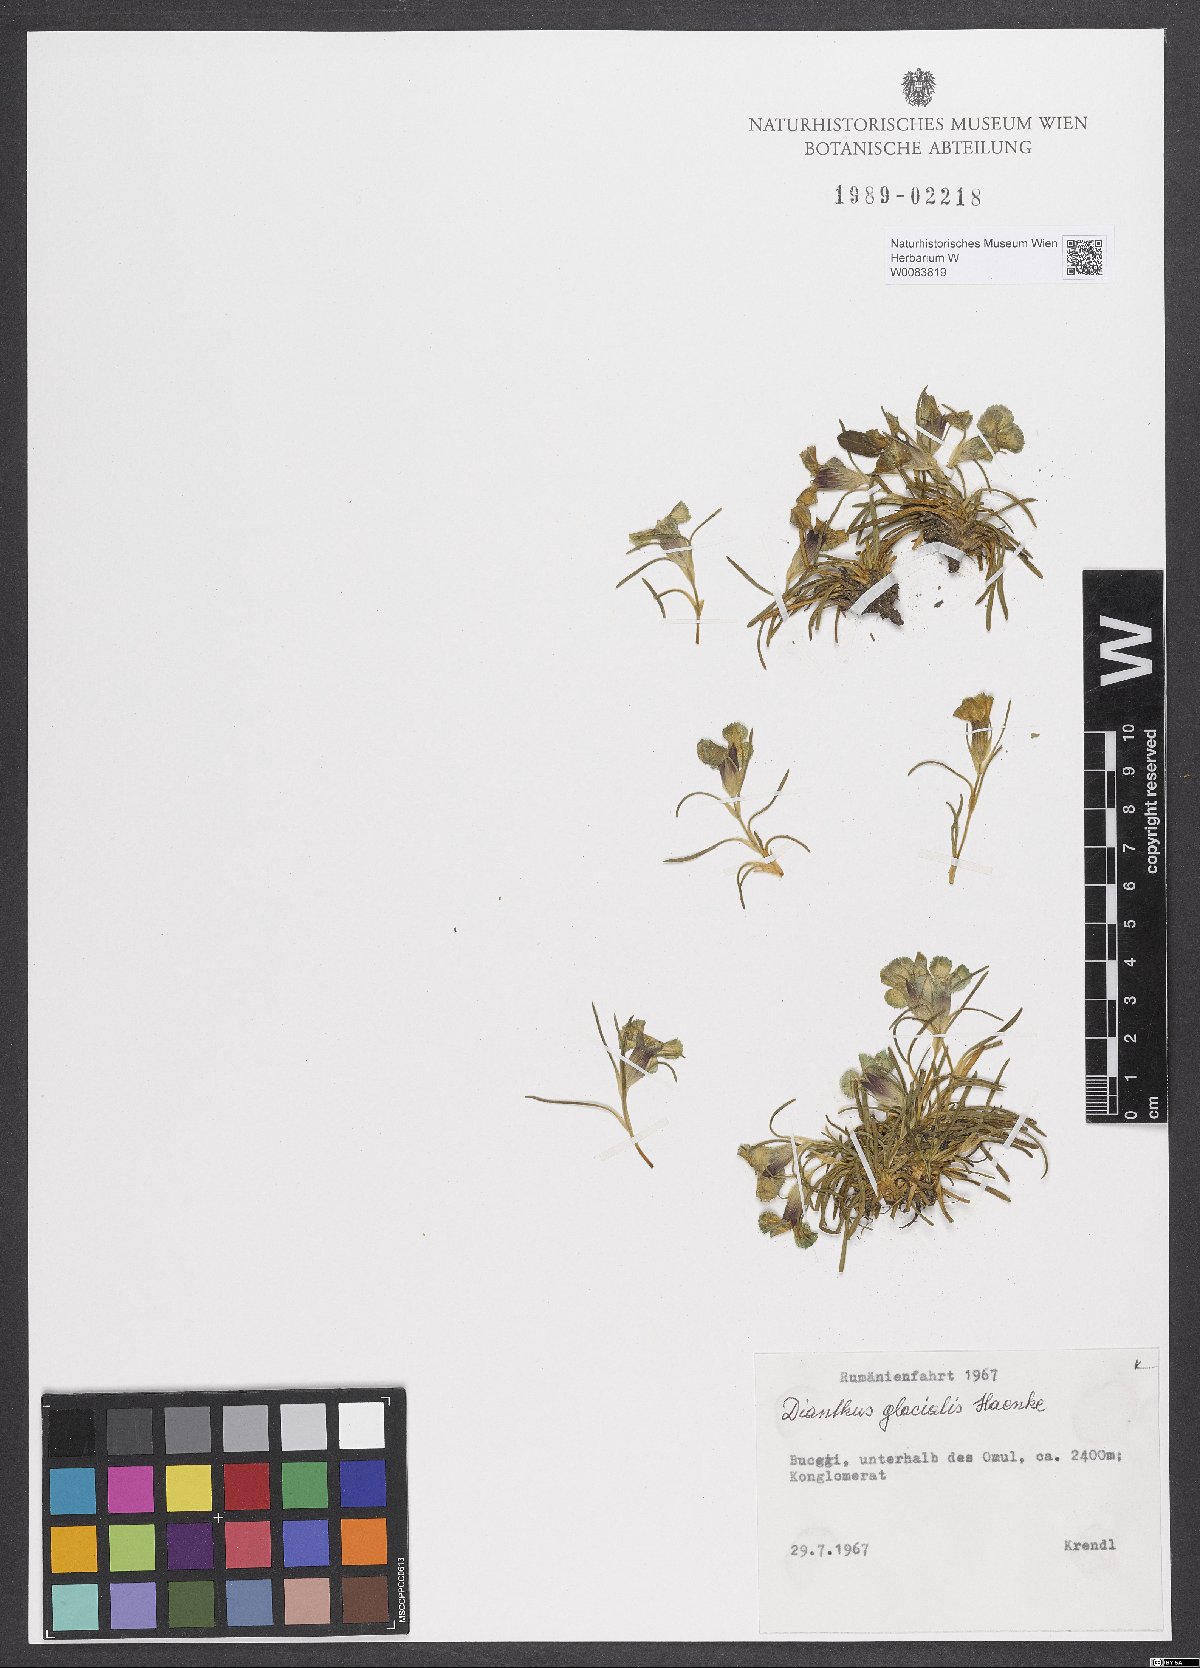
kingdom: Plantae
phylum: Tracheophyta
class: Magnoliopsida
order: Caryophyllales
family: Caryophyllaceae
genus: Dianthus
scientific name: Dianthus glacialis
